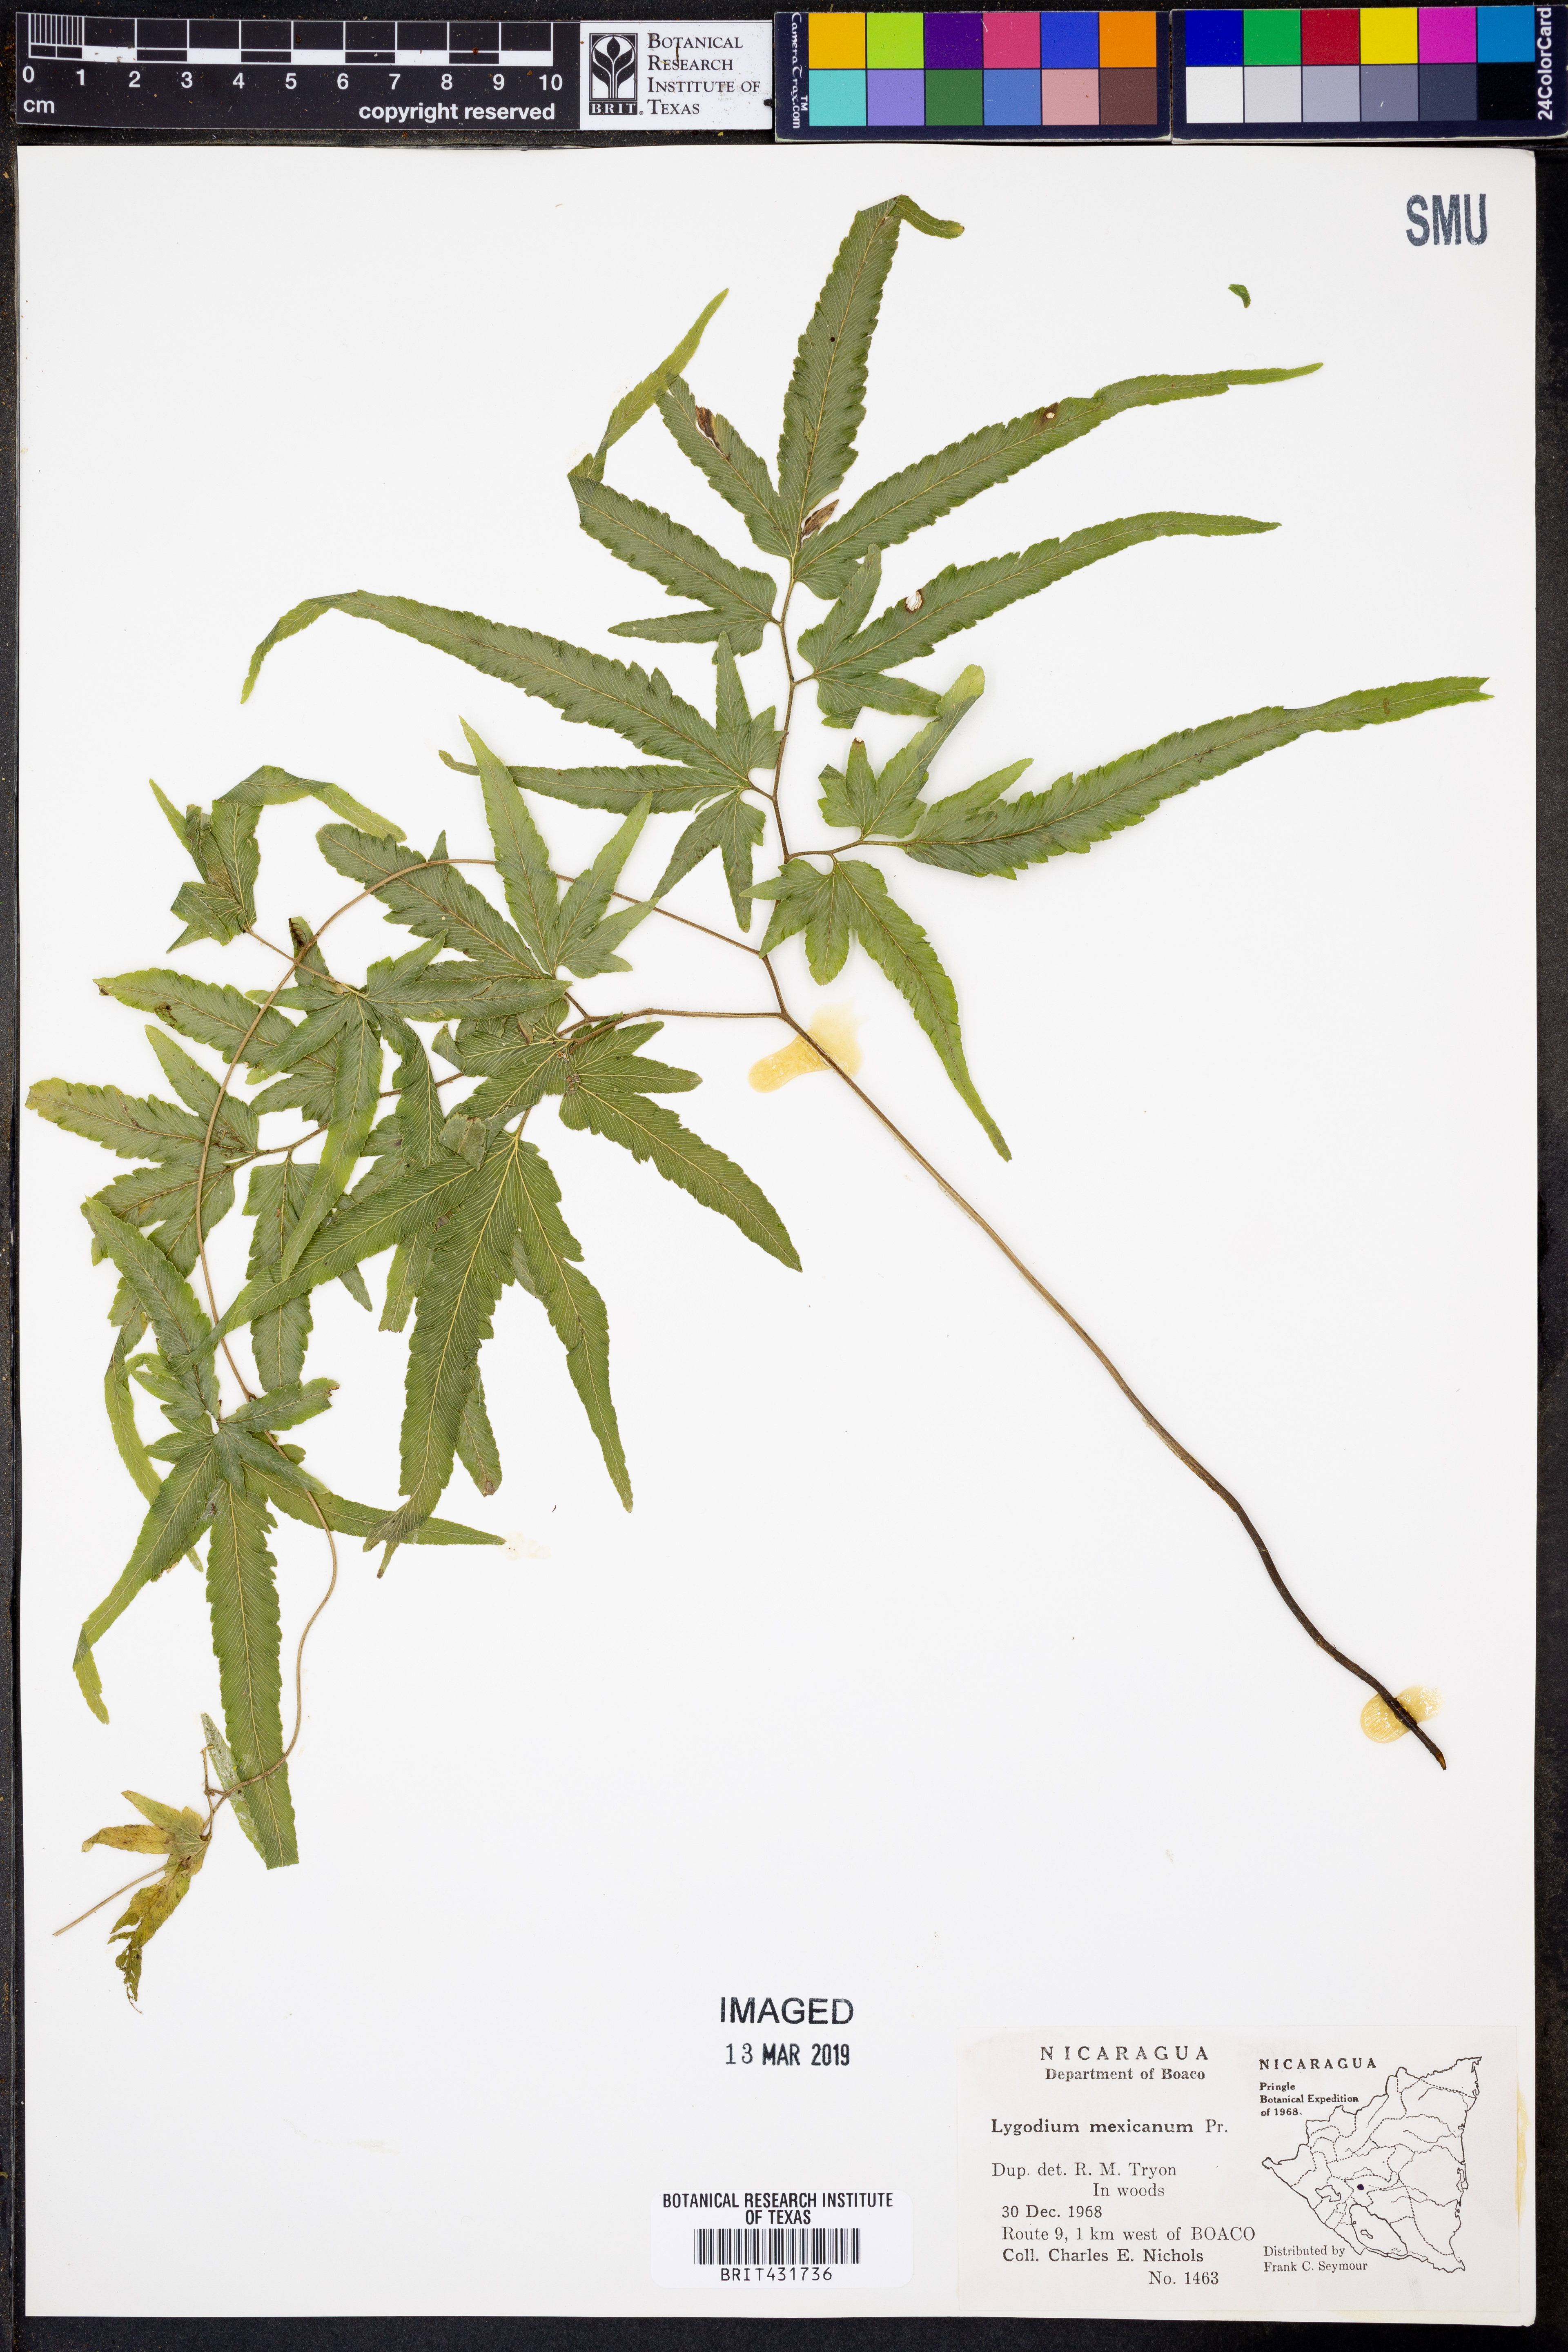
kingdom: Plantae
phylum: Tracheophyta
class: Polypodiopsida
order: Schizaeales
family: Lygodiaceae
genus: Lygodium
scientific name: Lygodium venustum
